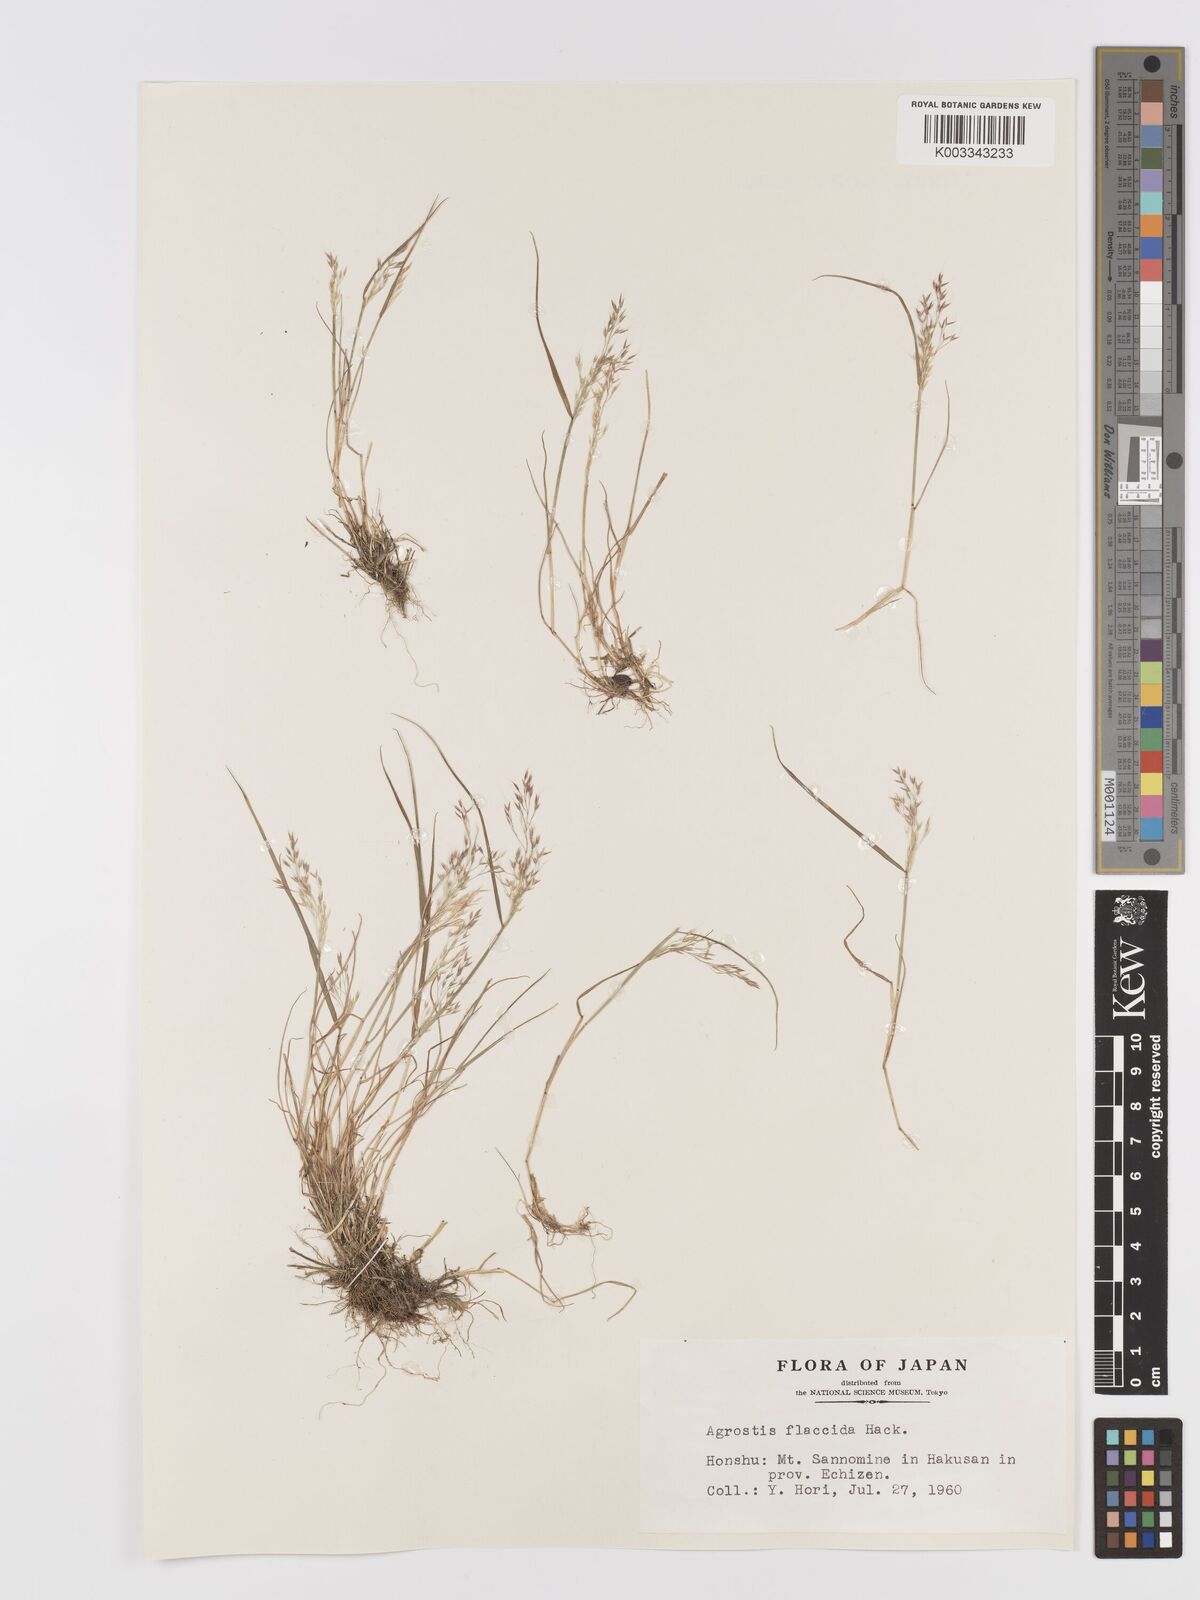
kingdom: Plantae
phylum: Tracheophyta
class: Liliopsida
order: Poales
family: Poaceae
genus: Agrostis
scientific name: Agrostis flaccida
